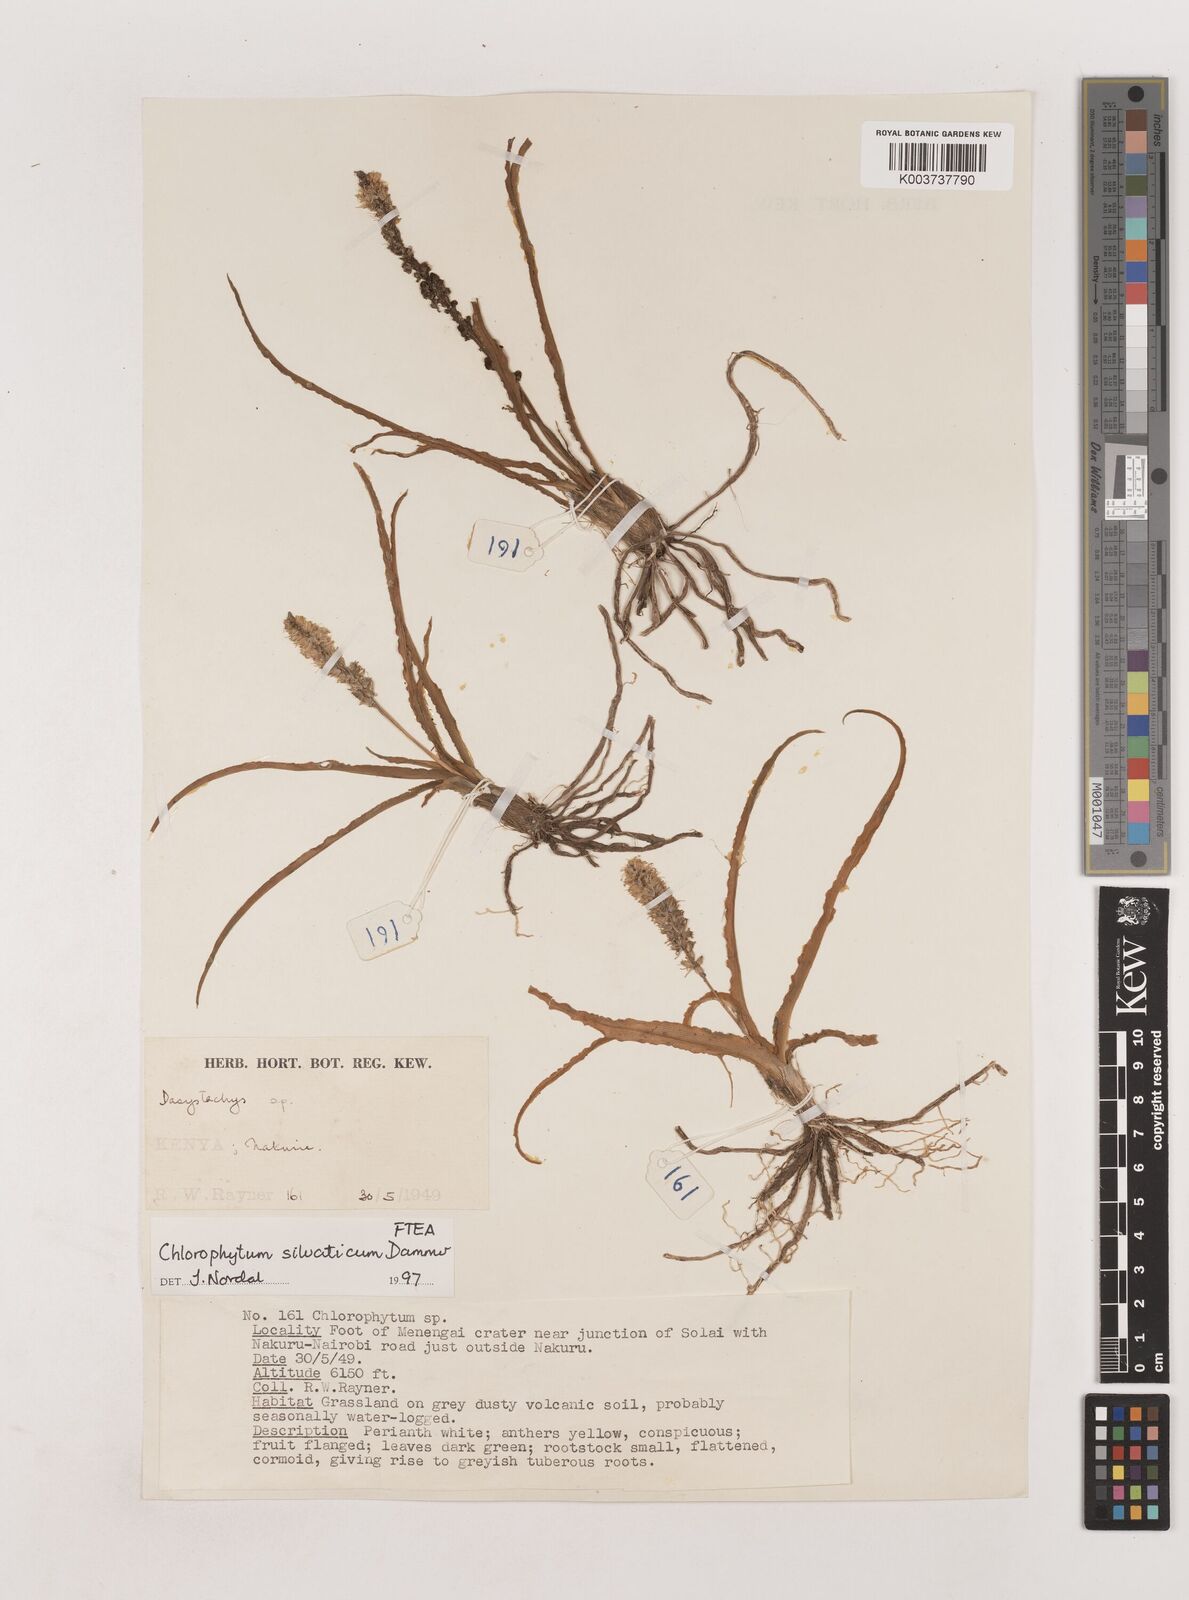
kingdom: Plantae
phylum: Tracheophyta
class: Liliopsida
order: Asparagales
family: Asparagaceae
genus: Chlorophytum
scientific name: Chlorophytum africanum
